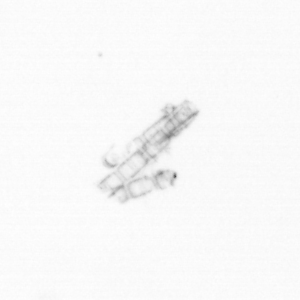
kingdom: Chromista
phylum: Ochrophyta
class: Bacillariophyceae
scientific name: Bacillariophyceae
